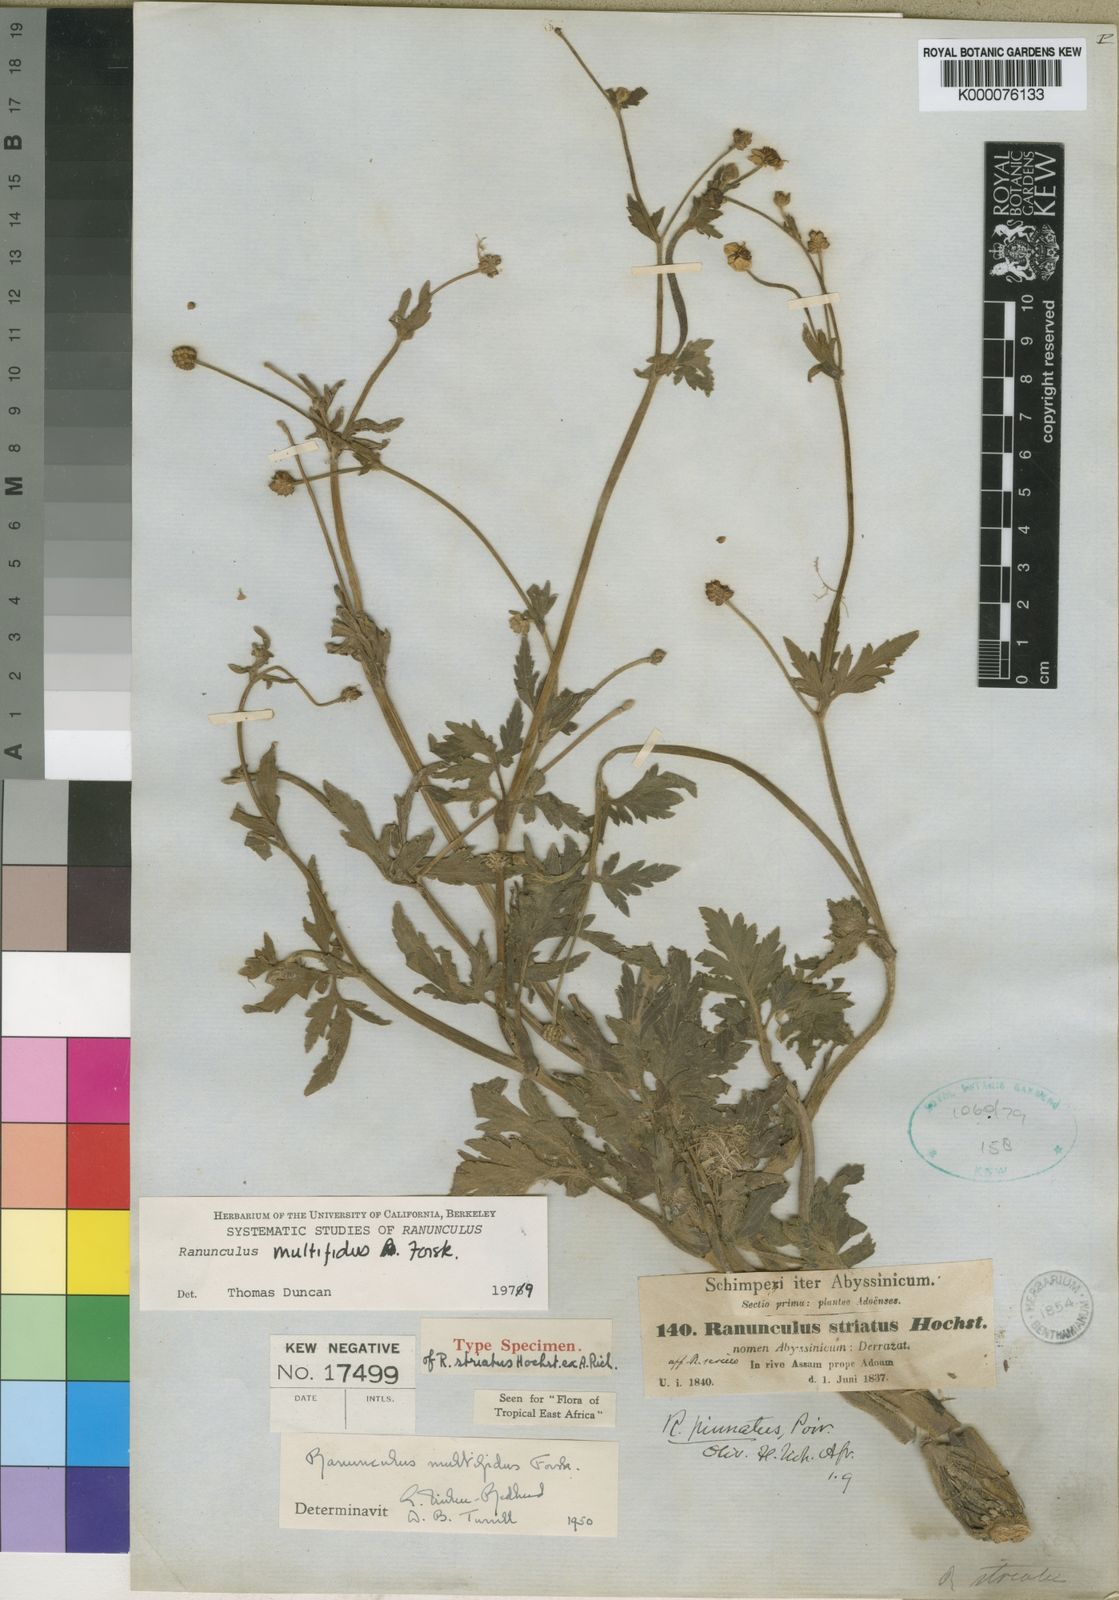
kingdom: Plantae
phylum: Tracheophyta
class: Magnoliopsida
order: Ranunculales
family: Ranunculaceae
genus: Ranunculus
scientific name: Ranunculus multifidus
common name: Wild buttercup
